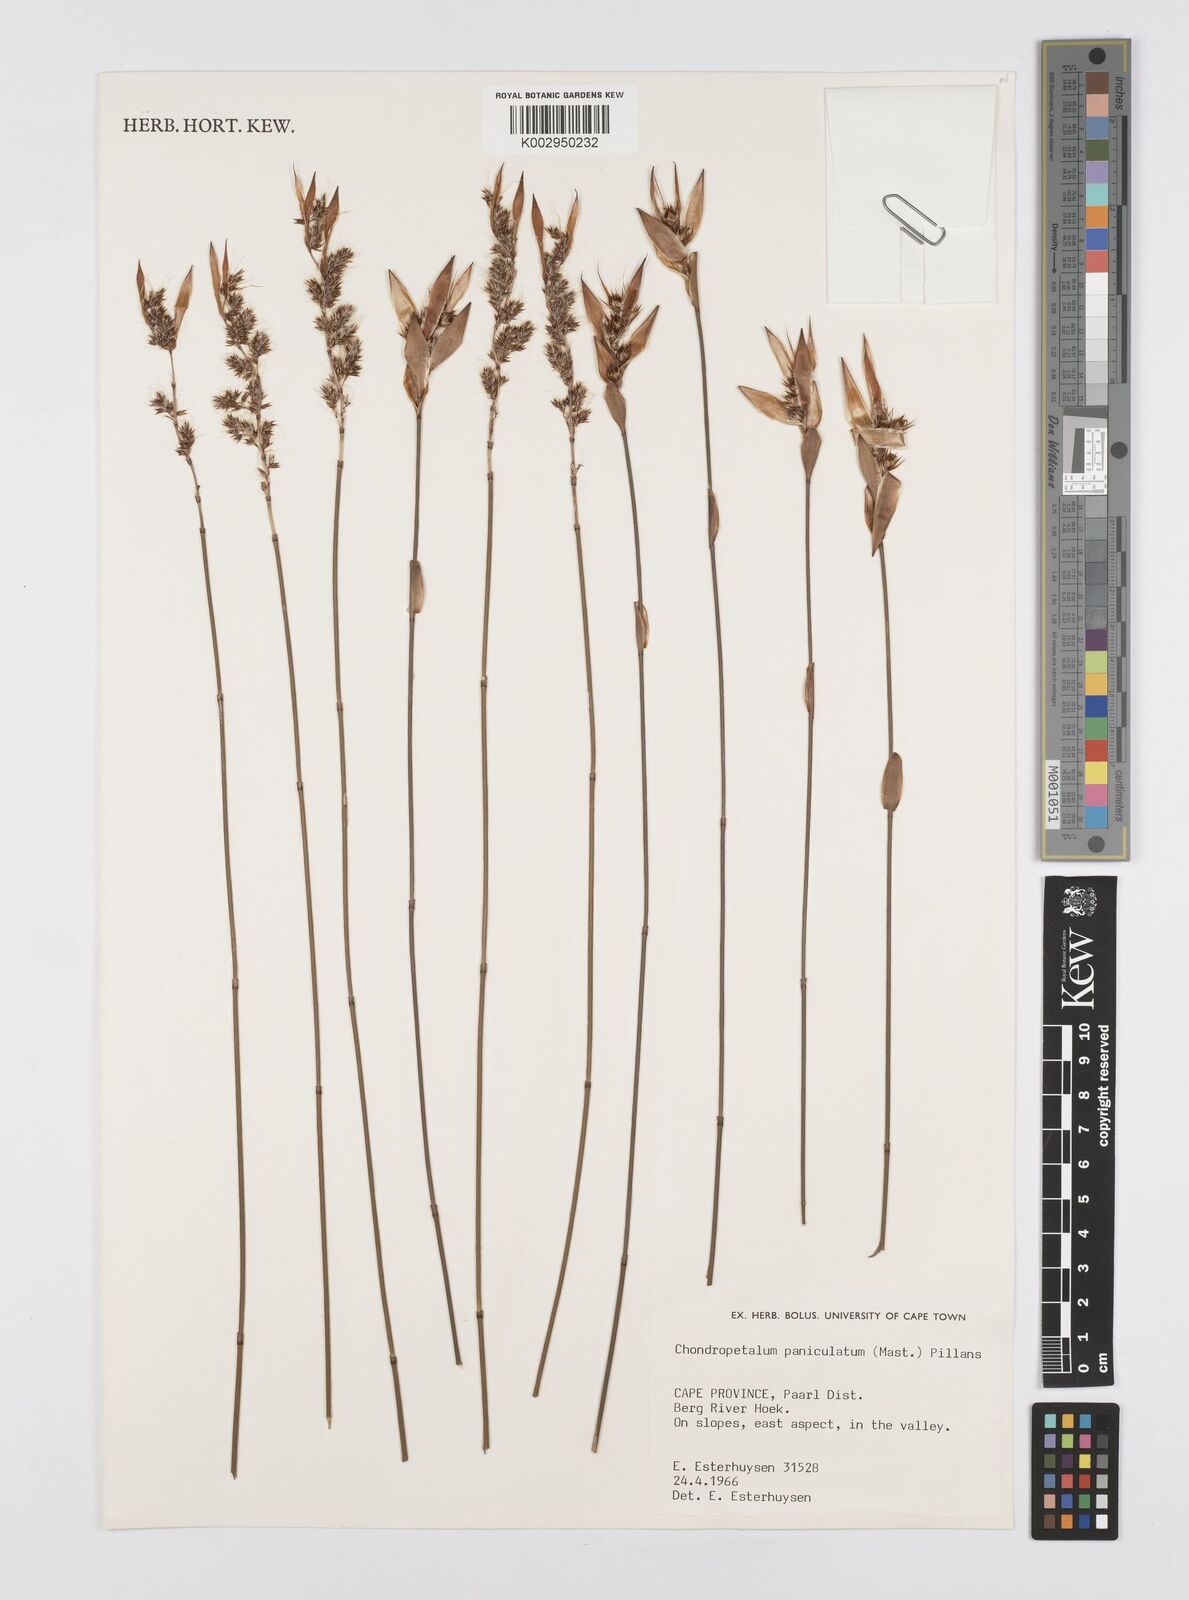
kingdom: Plantae
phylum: Tracheophyta
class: Liliopsida
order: Poales
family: Restionaceae
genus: Askidiosperma
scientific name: Askidiosperma paniculatum
